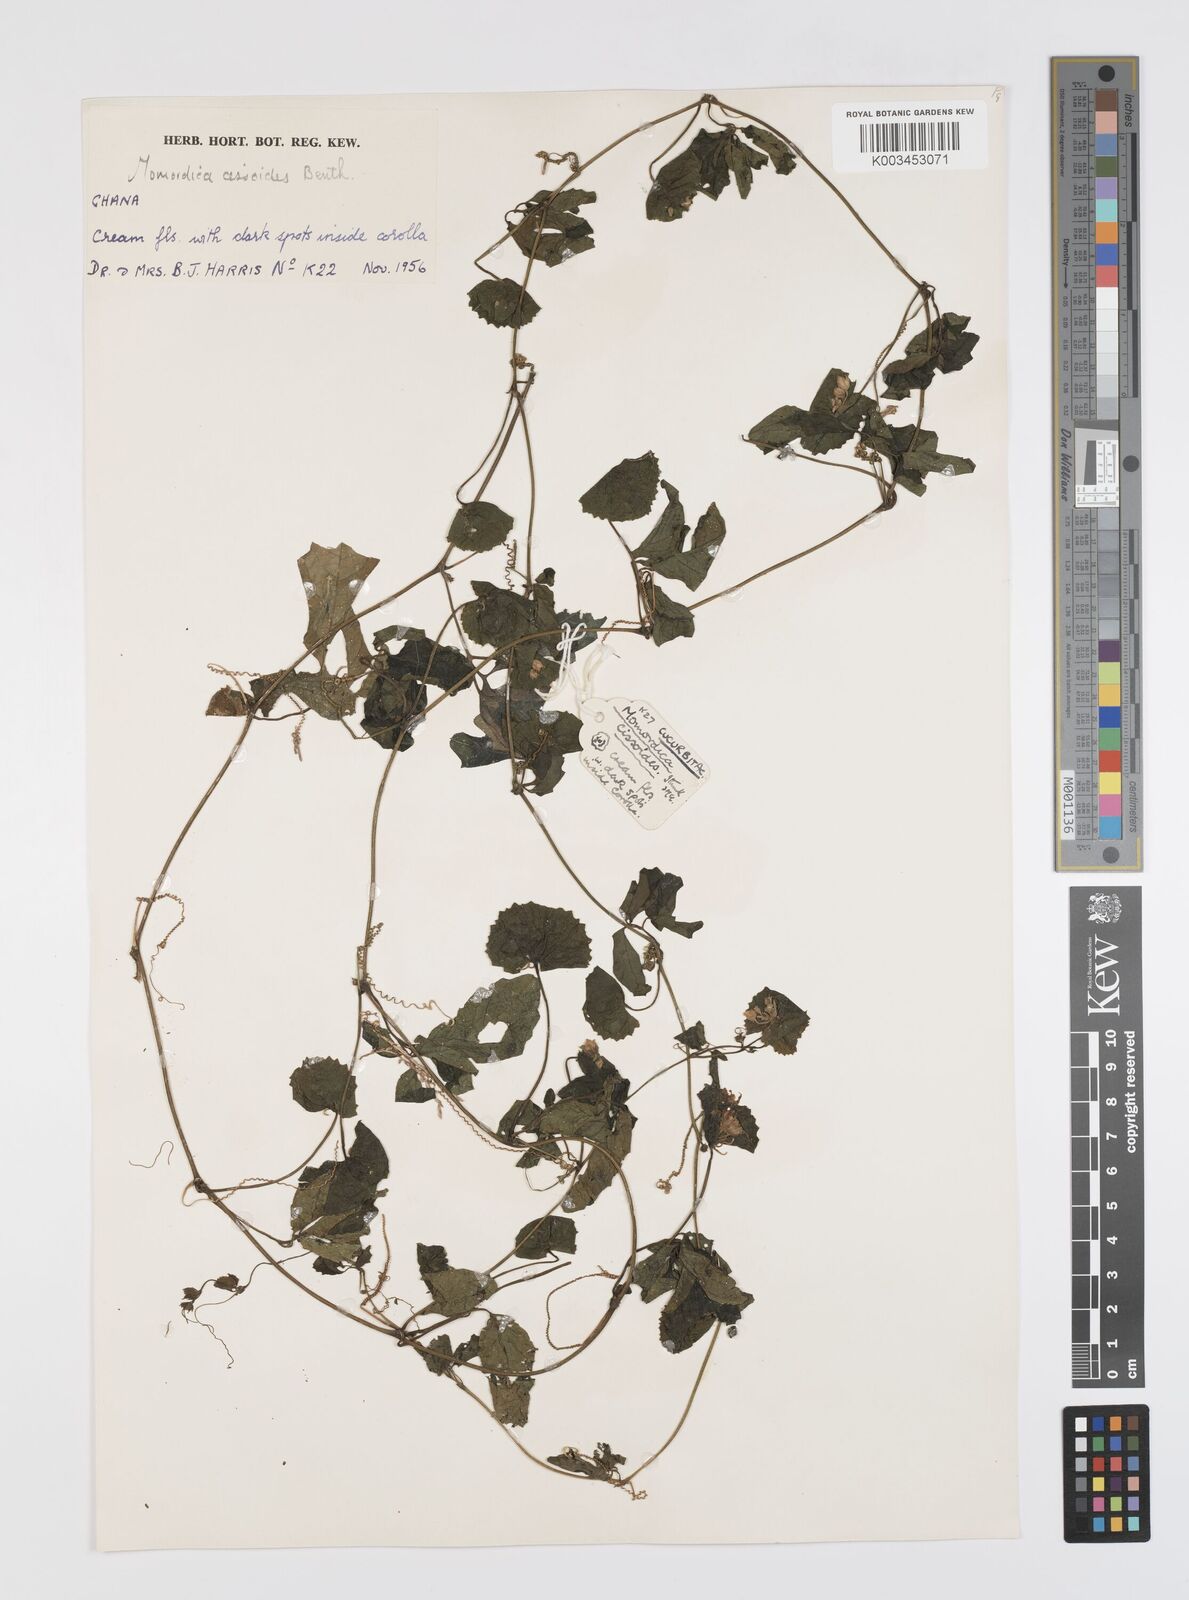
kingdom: Plantae
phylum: Tracheophyta
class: Magnoliopsida
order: Cucurbitales
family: Cucurbitaceae
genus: Momordica
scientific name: Momordica cissoides
